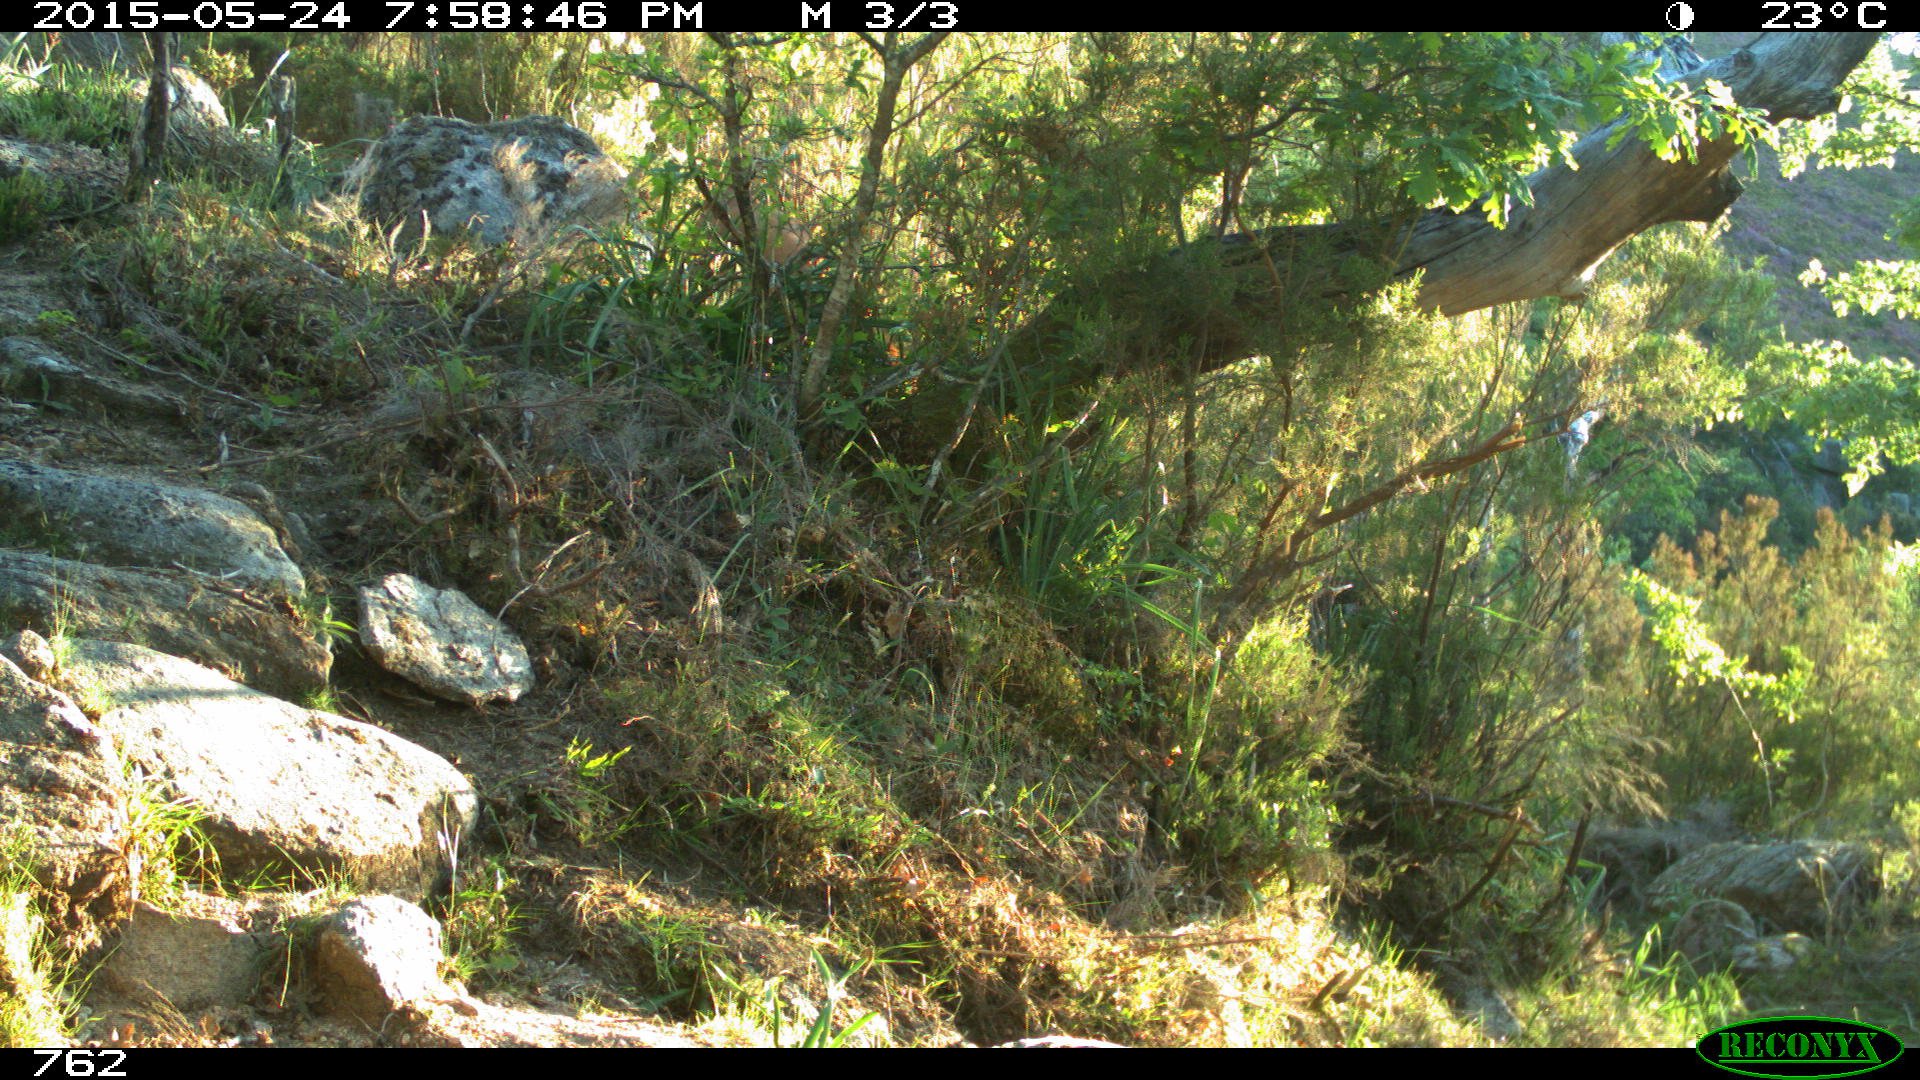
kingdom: Animalia
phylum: Chordata
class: Mammalia
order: Artiodactyla
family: Bovidae
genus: Bos
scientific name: Bos taurus
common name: Domesticated cattle
